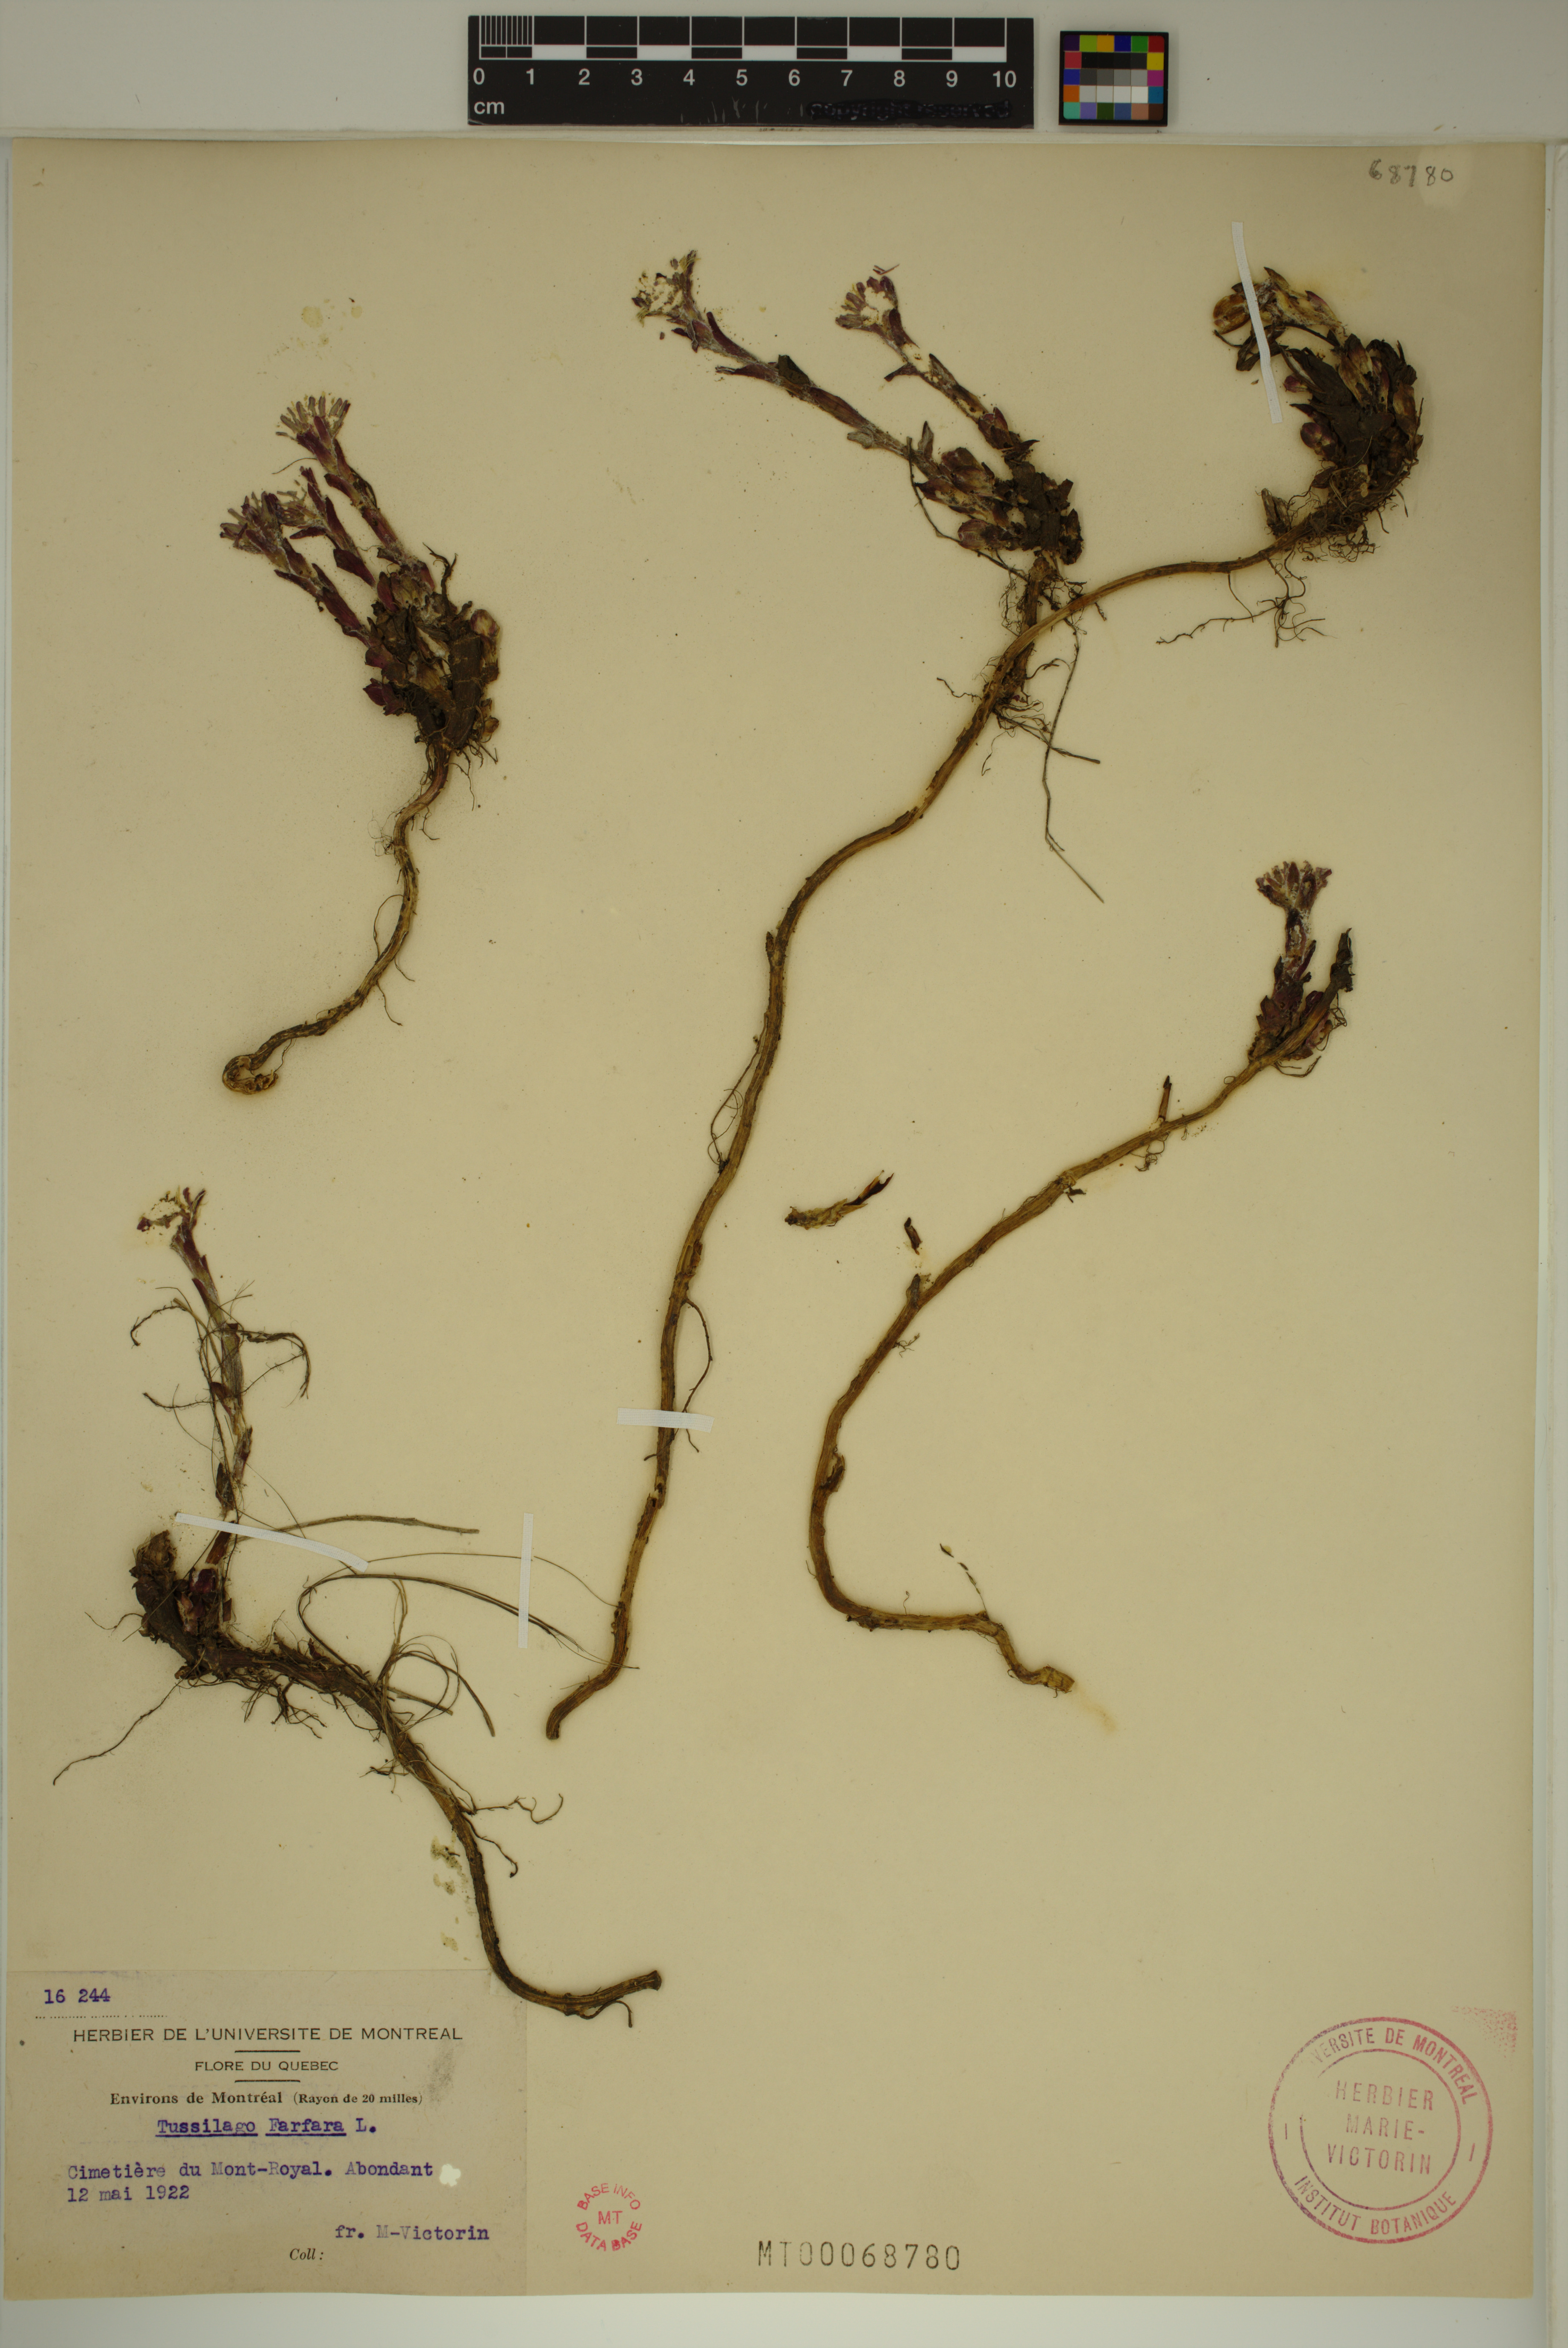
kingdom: Plantae
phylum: Tracheophyta
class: Magnoliopsida
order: Asterales
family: Asteraceae
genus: Tussilago
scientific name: Tussilago farfara
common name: Coltsfoot
